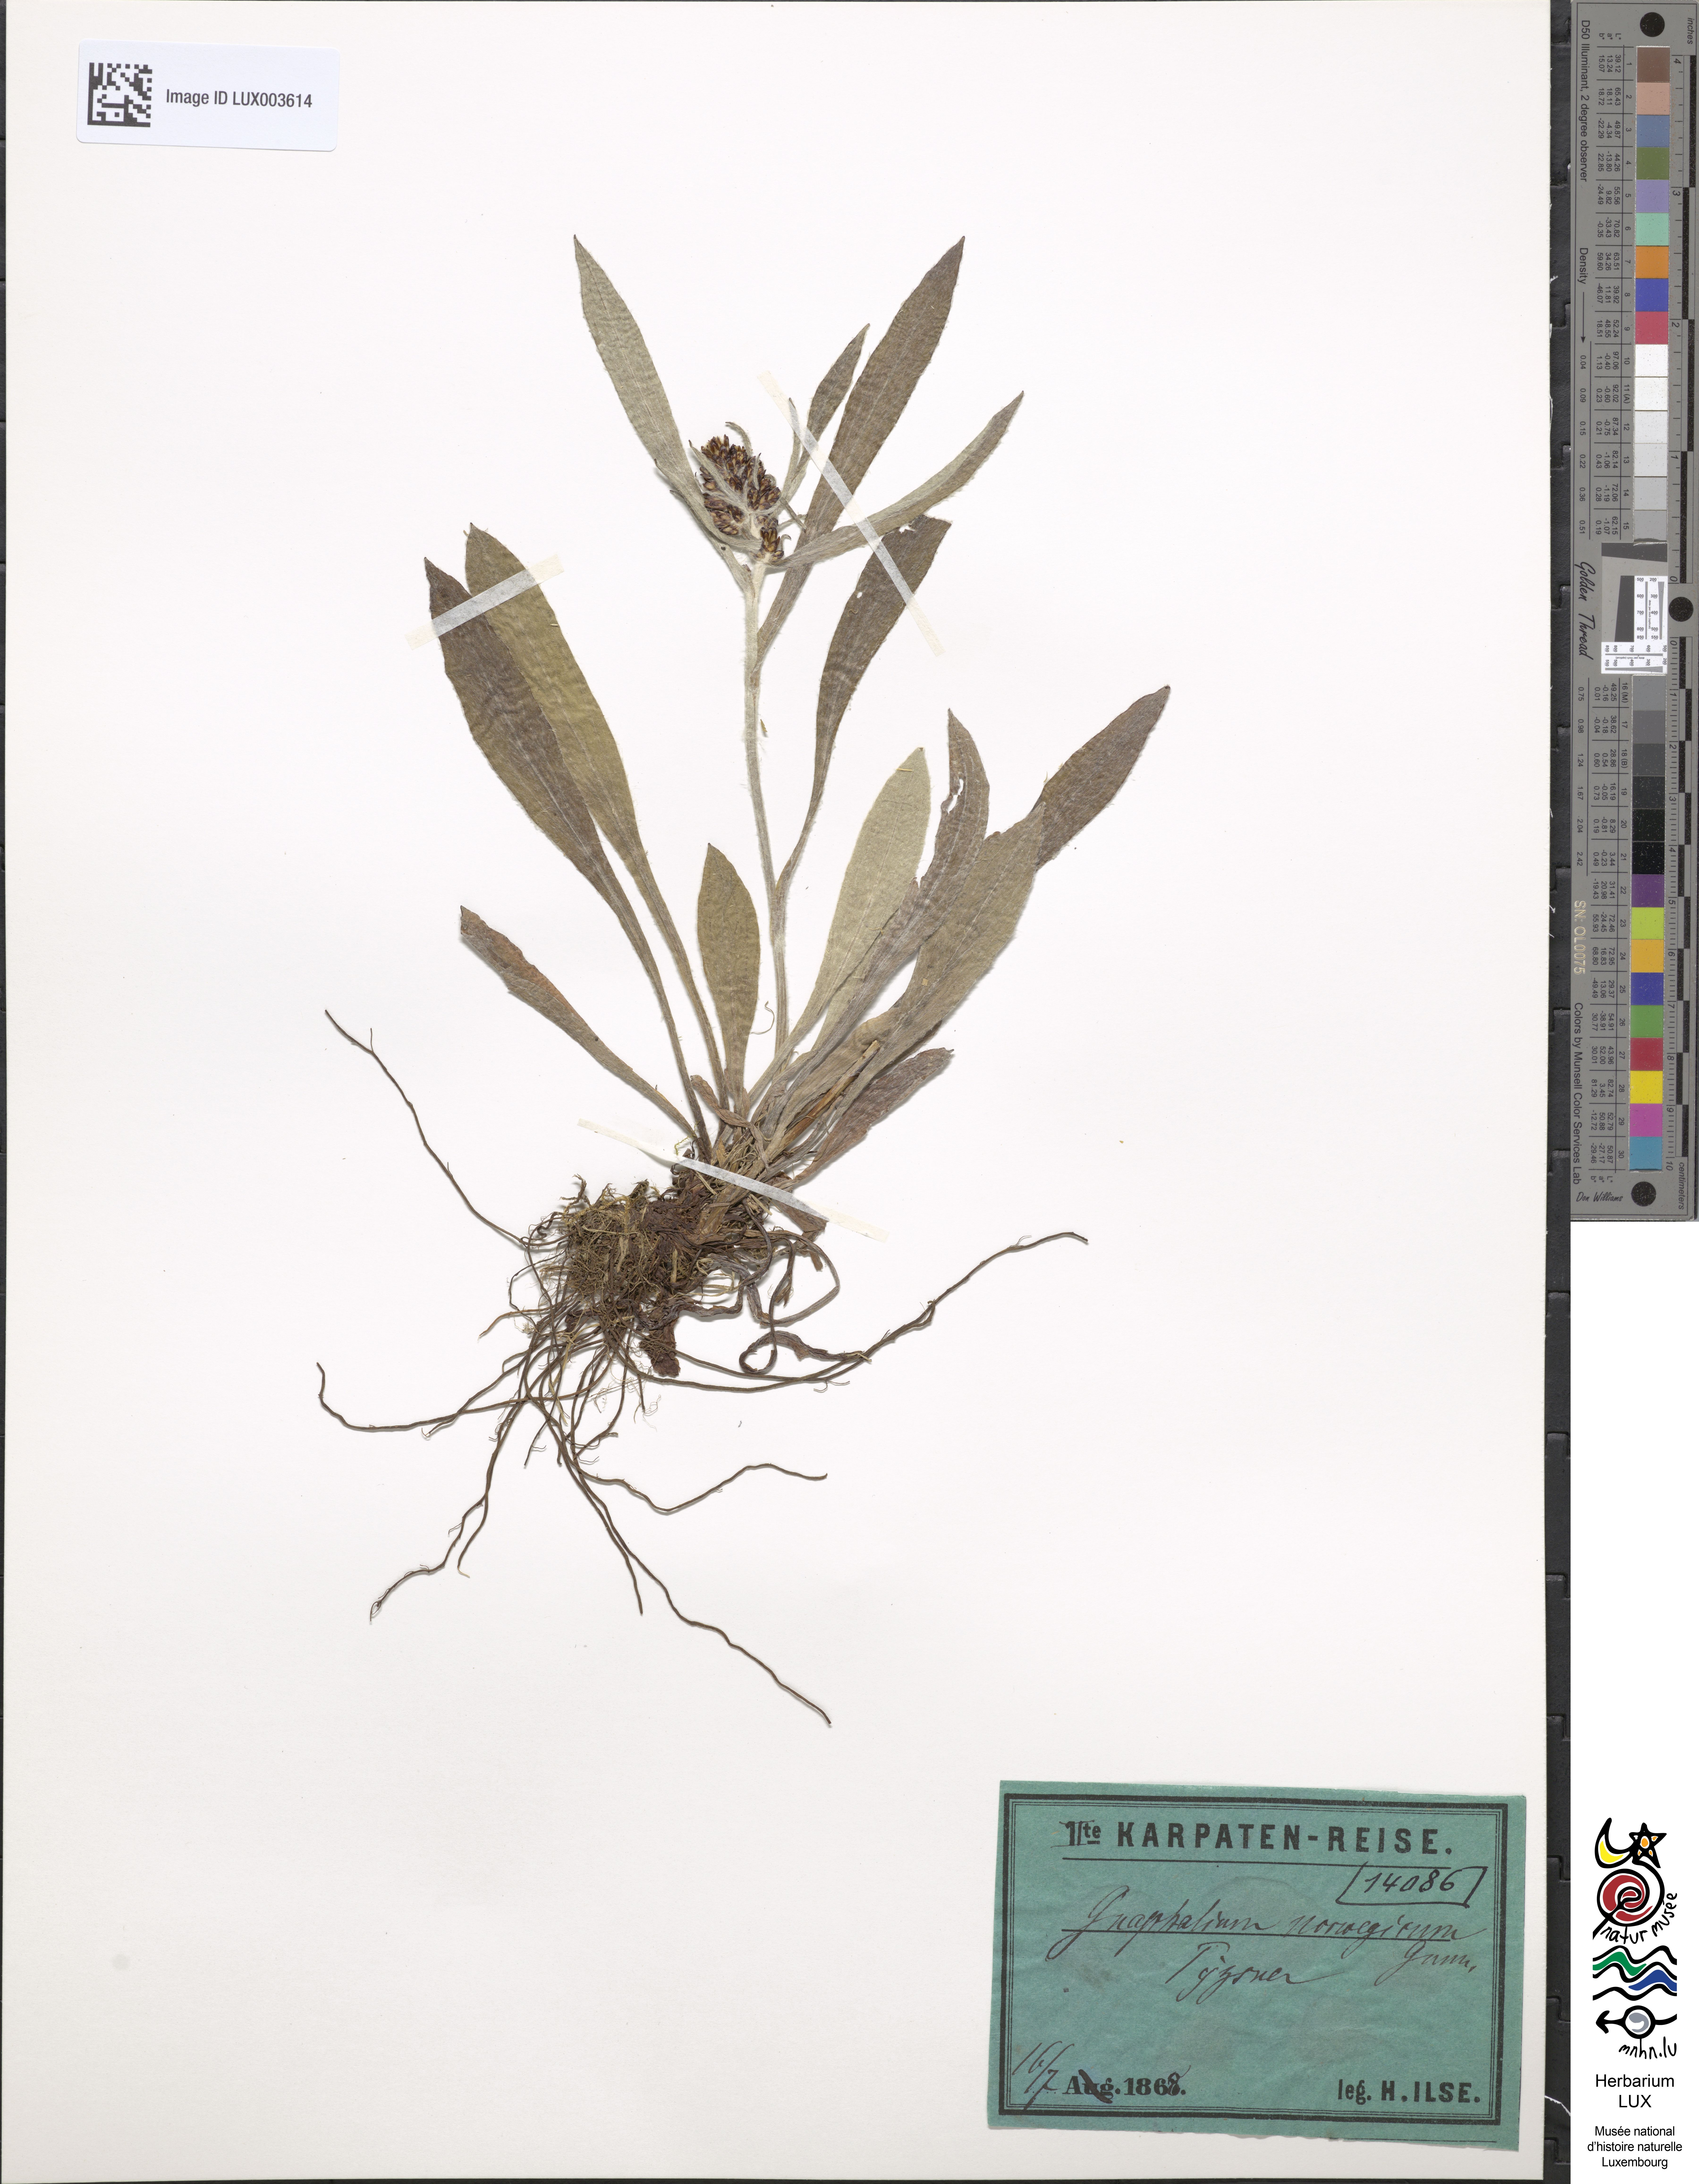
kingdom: Plantae
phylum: Tracheophyta
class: Magnoliopsida
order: Asterales
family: Asteraceae
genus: Omalotheca
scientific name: Omalotheca norvegica
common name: Norwegian arctic-cudweed
